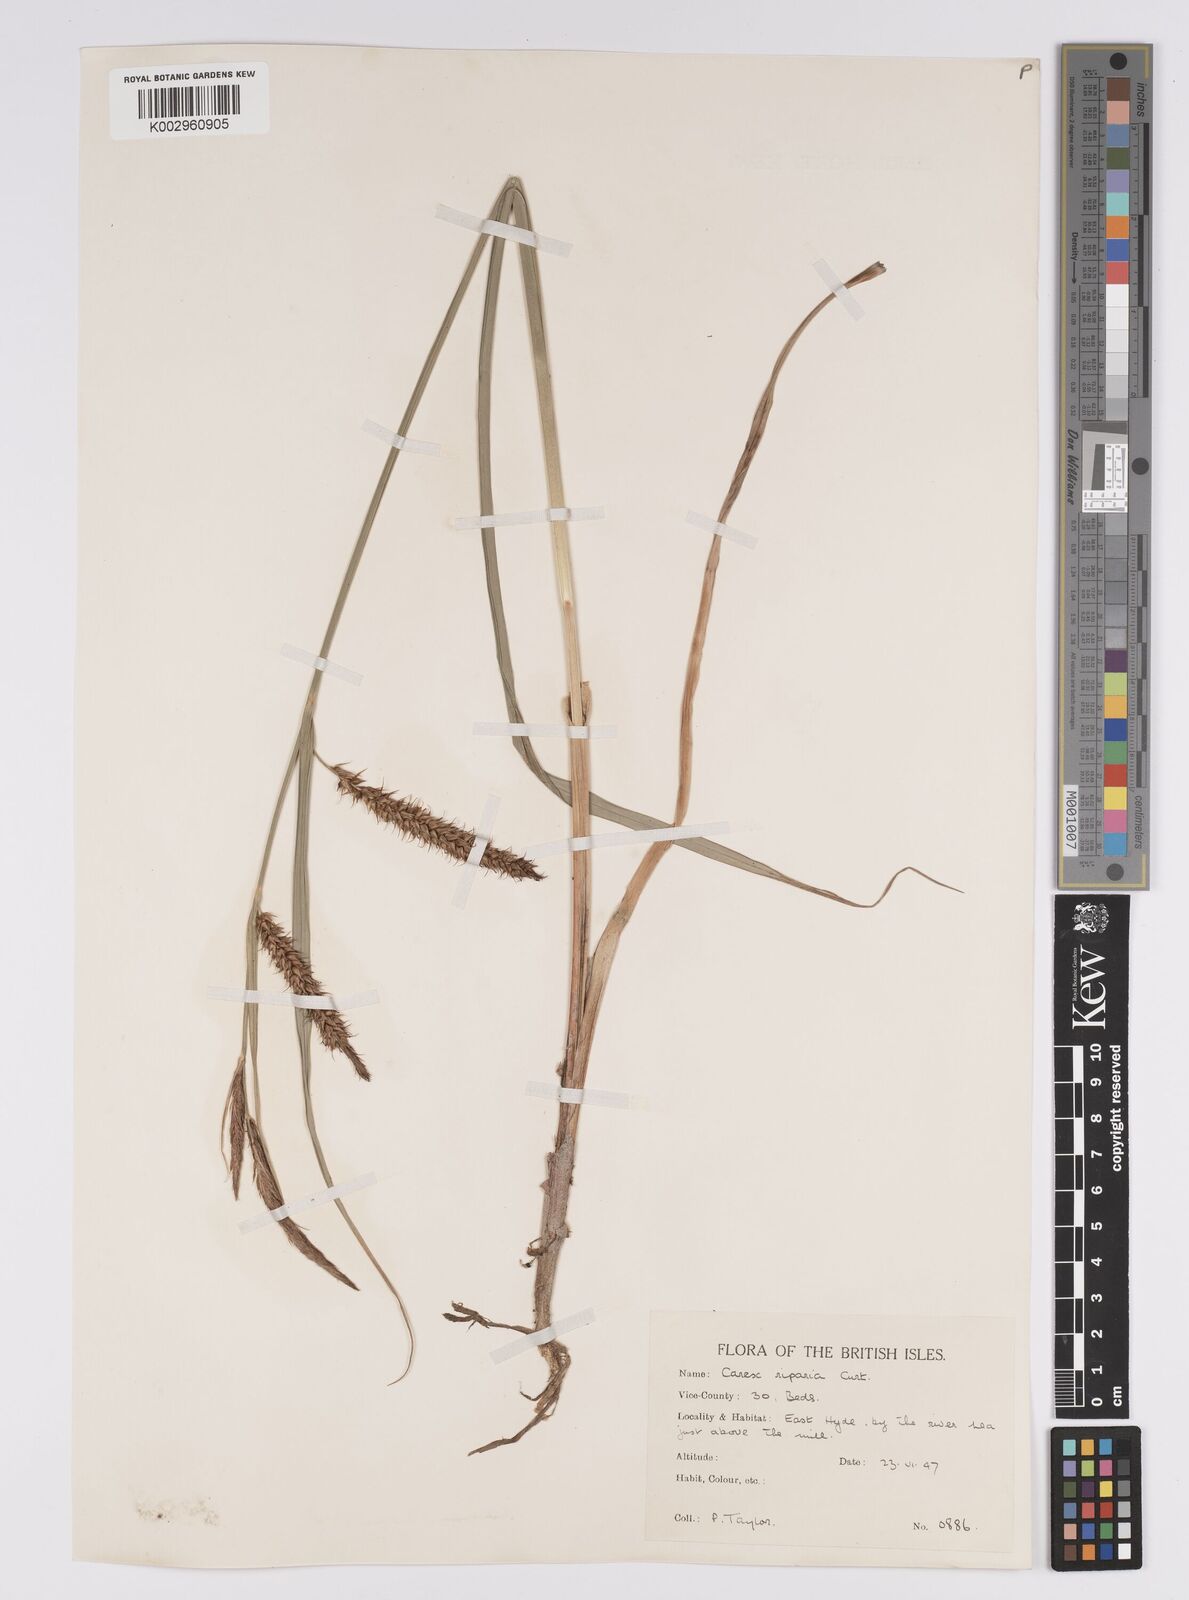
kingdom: Plantae
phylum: Tracheophyta
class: Liliopsida
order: Poales
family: Cyperaceae
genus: Carex
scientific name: Carex riparia
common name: Greater pond-sedge
